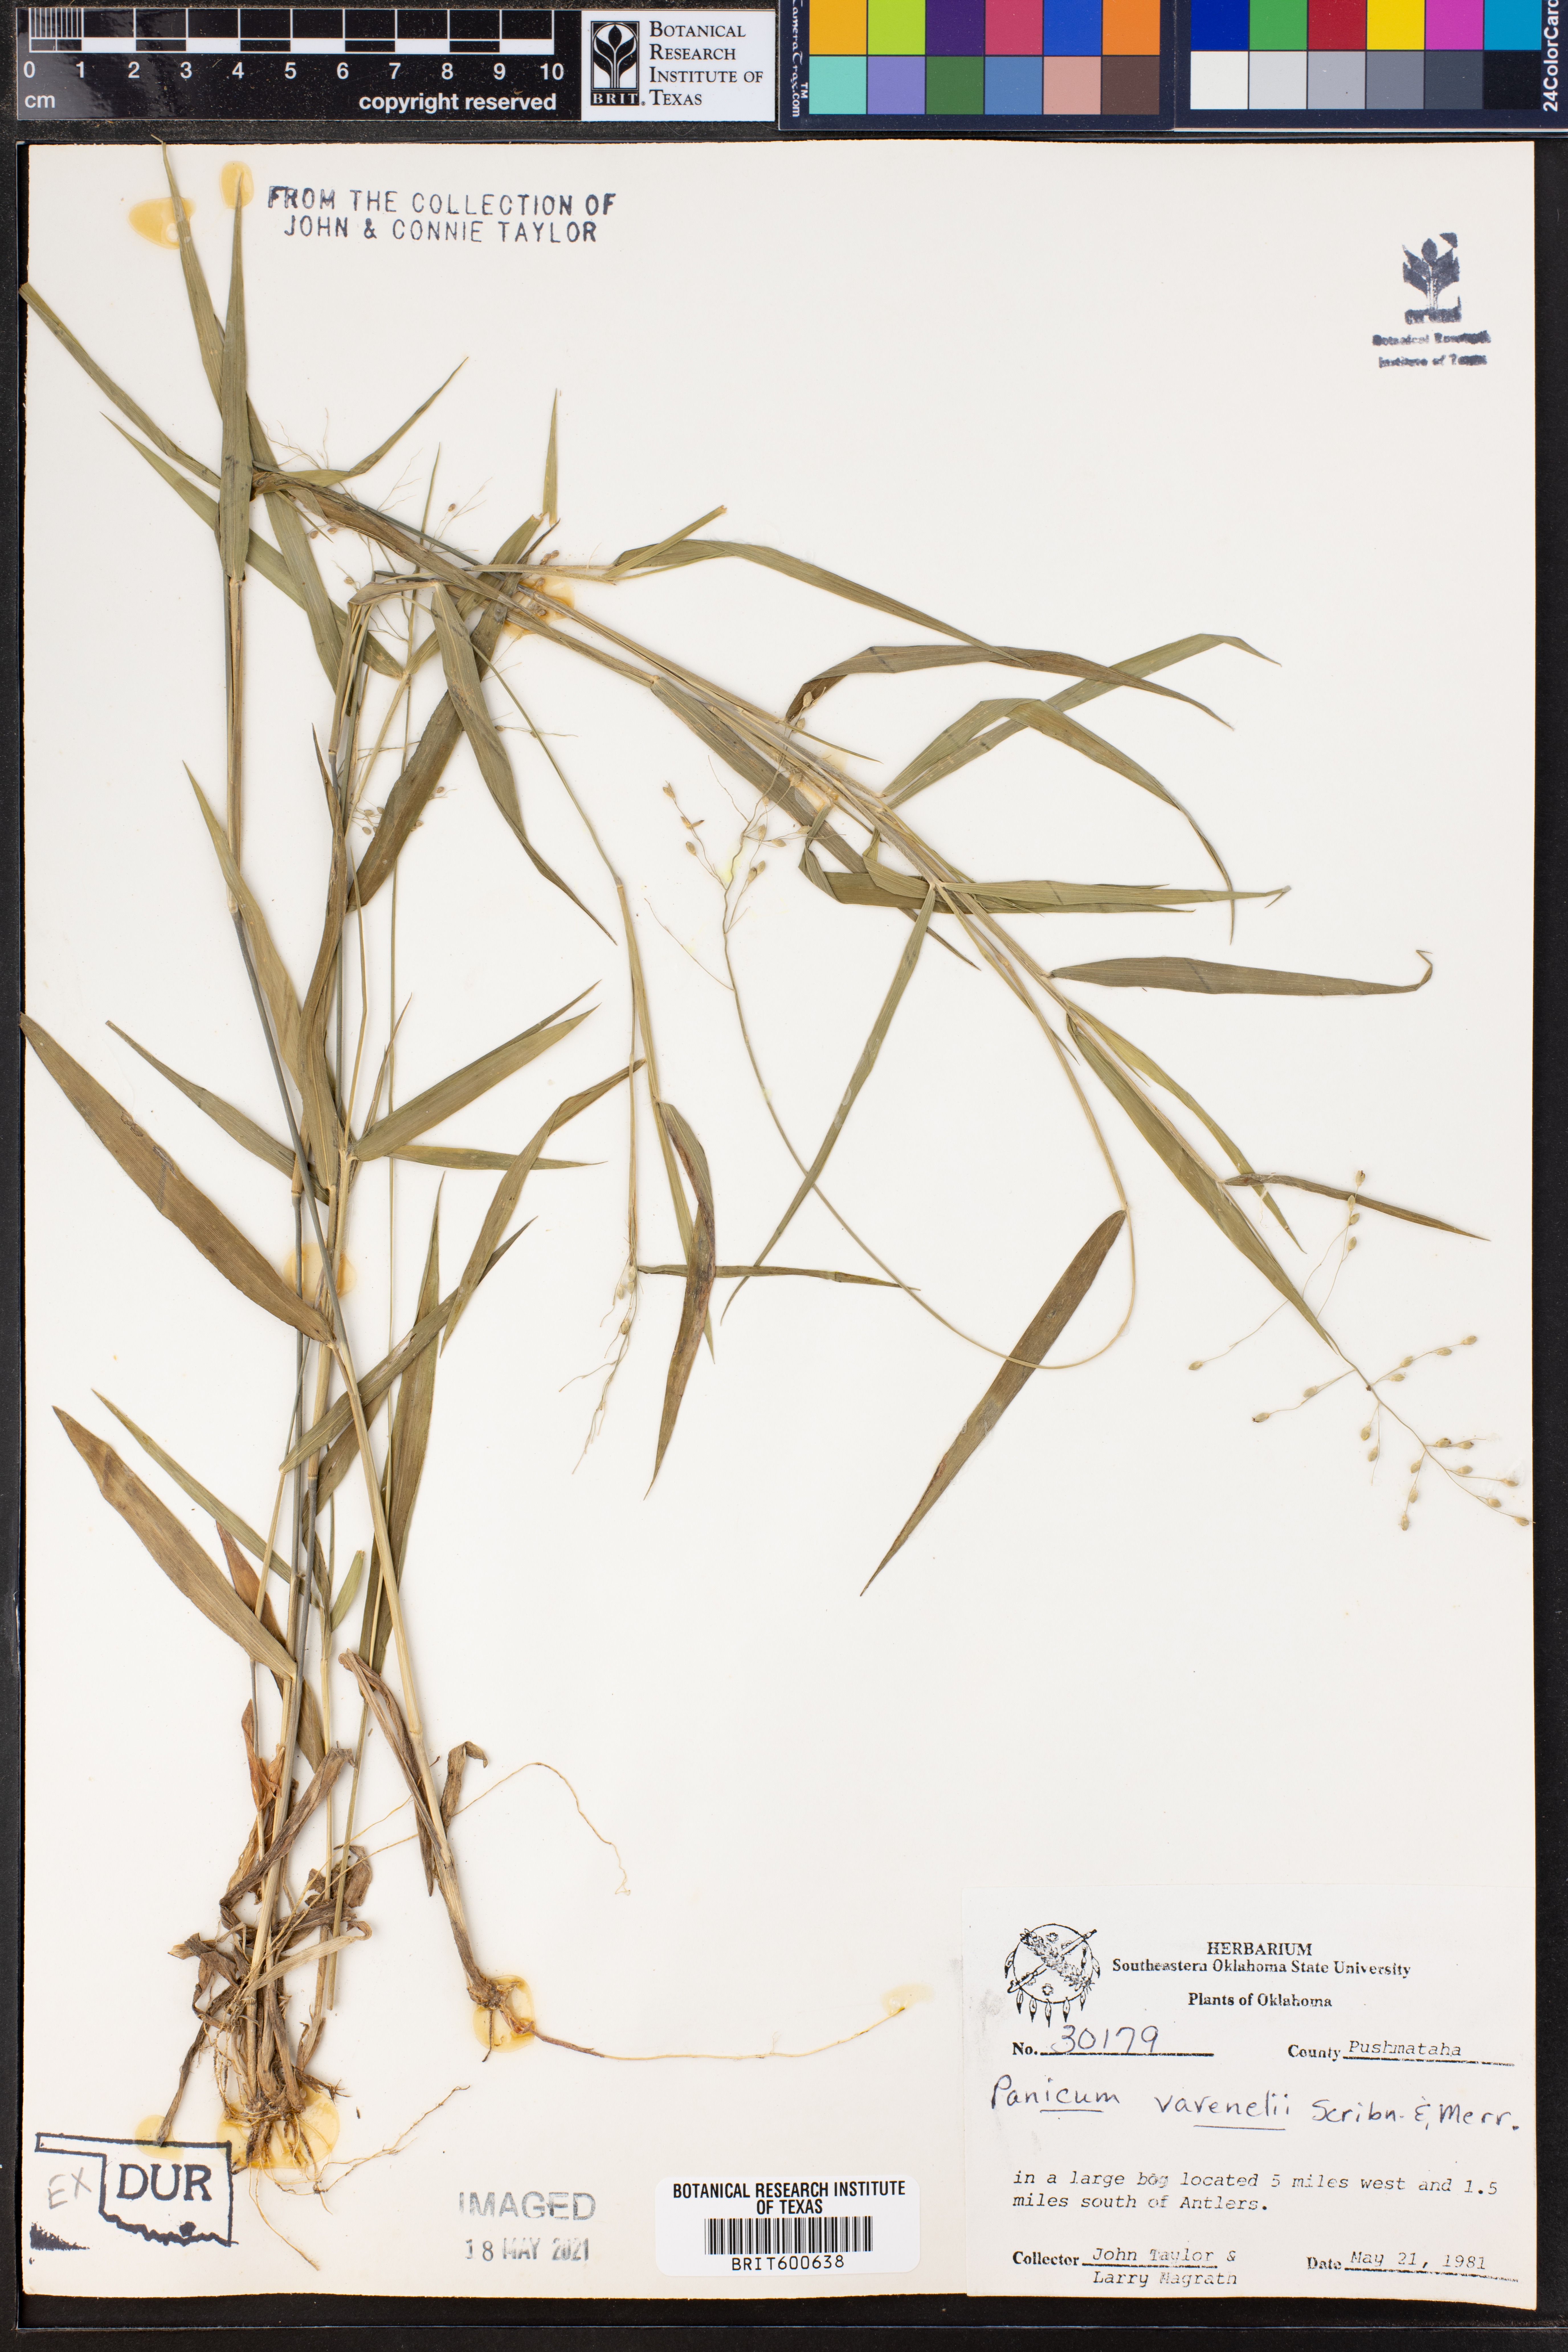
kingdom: Plantae
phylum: Tracheophyta
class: Liliopsida
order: Poales
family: Poaceae
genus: Dichanthelium
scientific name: Dichanthelium ravenelii
